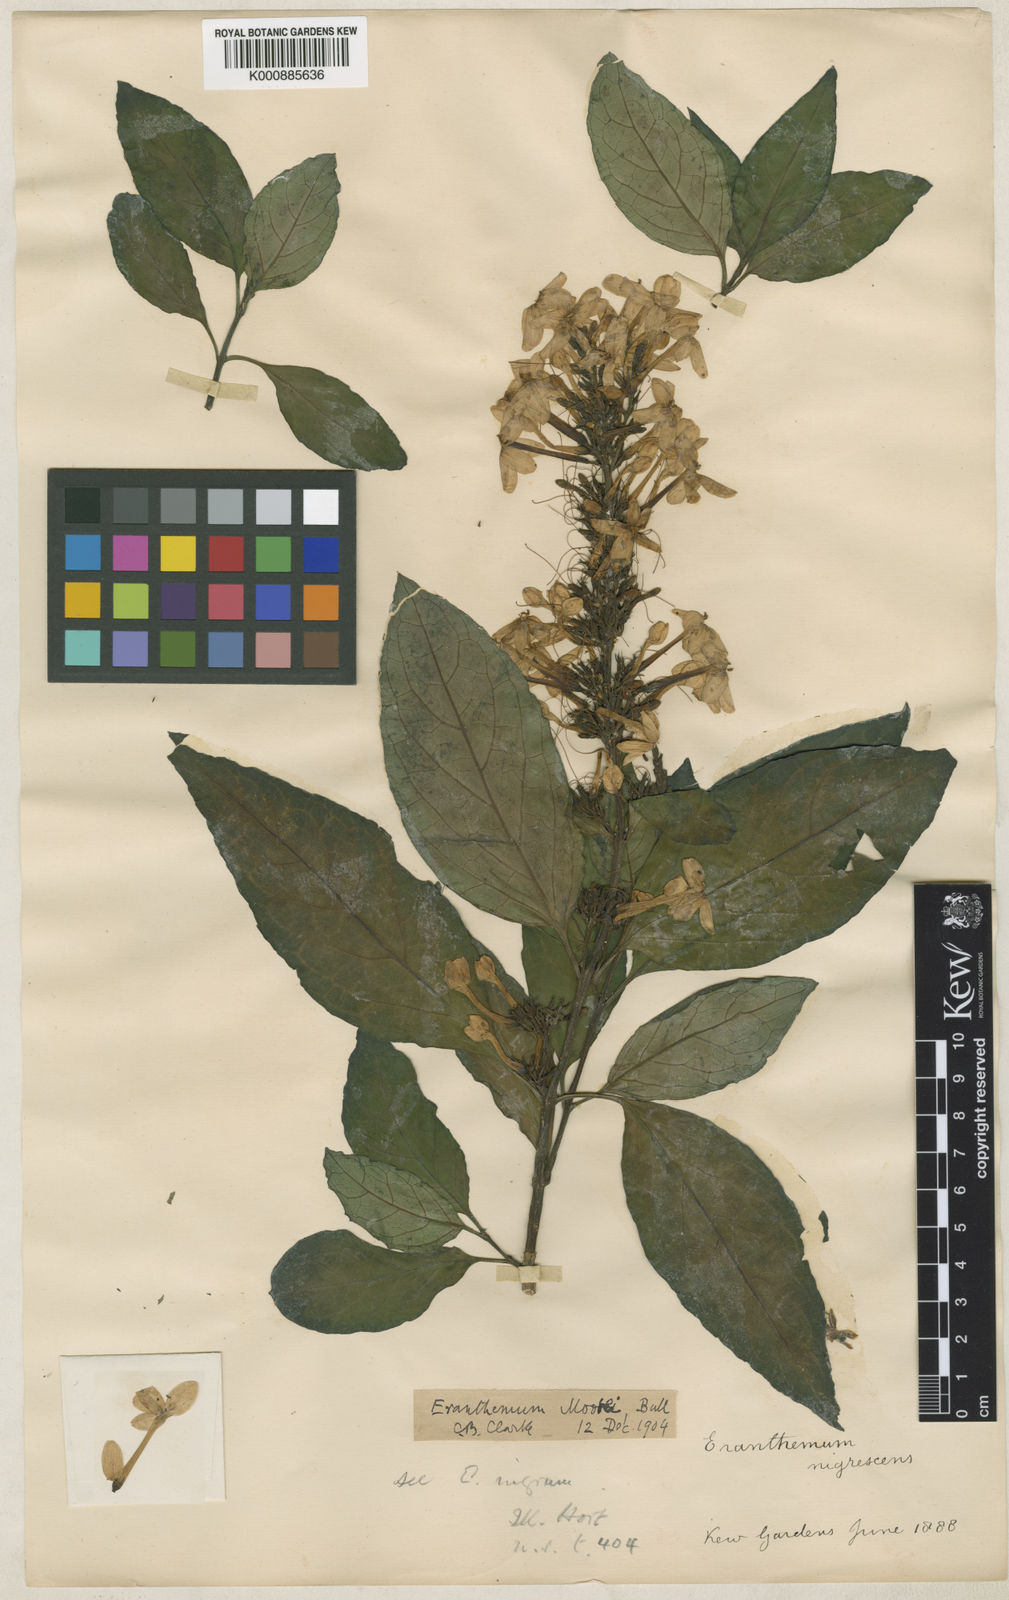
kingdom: Plantae
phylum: Tracheophyta
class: Magnoliopsida
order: Lamiales
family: Acanthaceae
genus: Pseuderanthemum
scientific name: Pseuderanthemum
